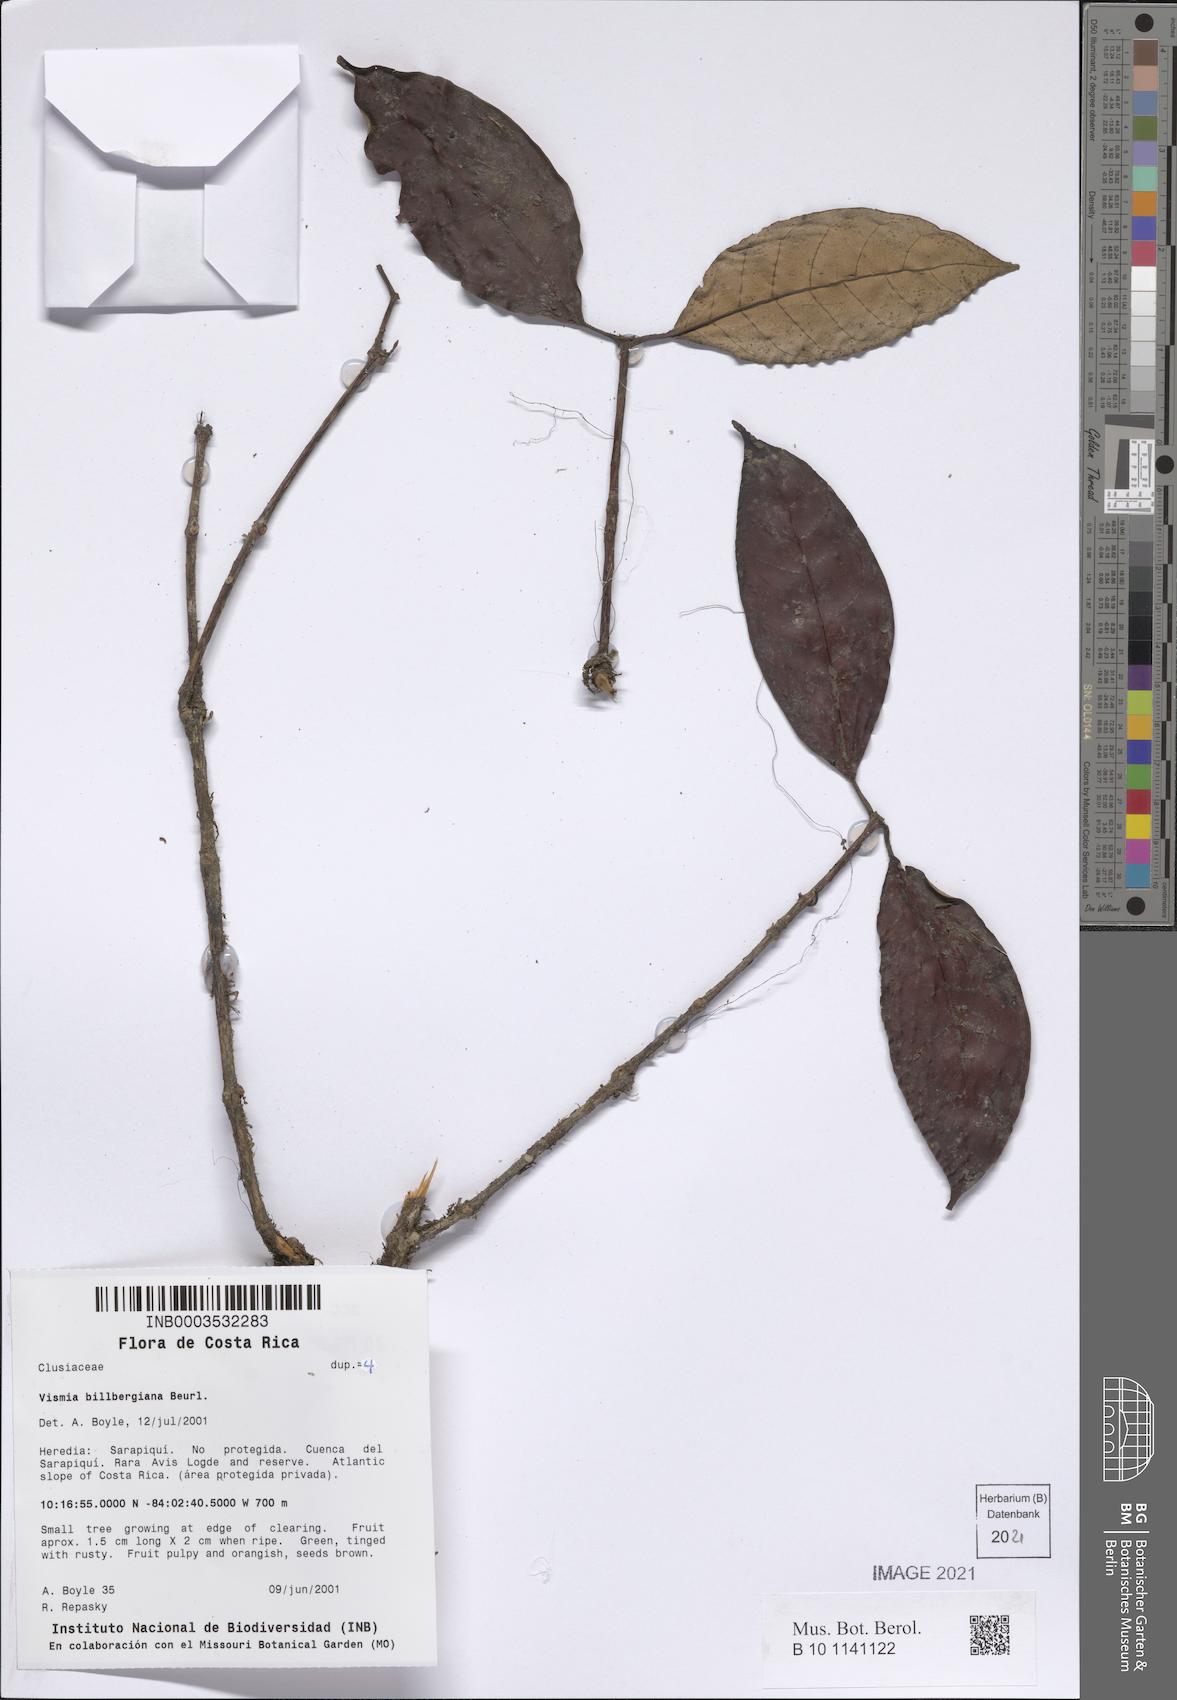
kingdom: Plantae
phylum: Tracheophyta
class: Magnoliopsida
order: Malpighiales
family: Hypericaceae
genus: Vismia
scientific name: Vismia billbergiana
